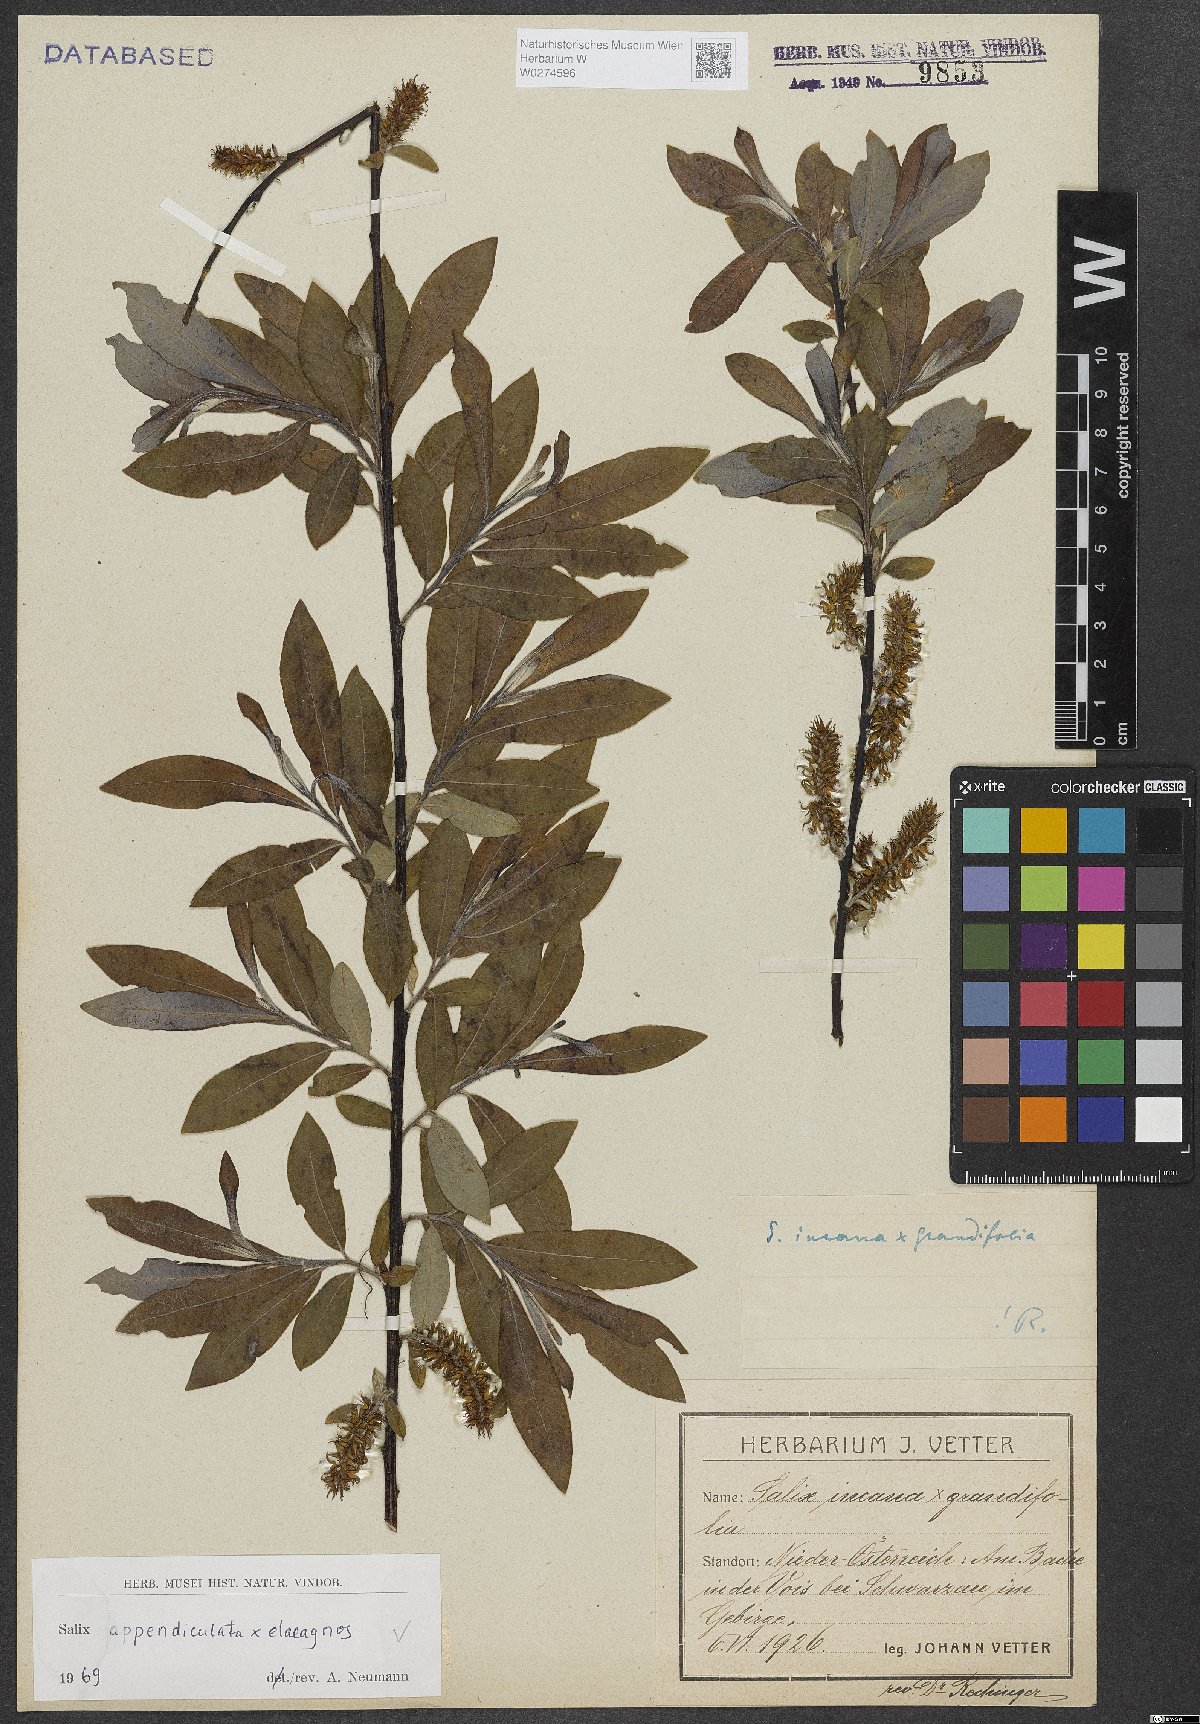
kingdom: Plantae
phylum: Tracheophyta
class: Magnoliopsida
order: Malpighiales
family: Salicaceae
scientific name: Salicaceae
